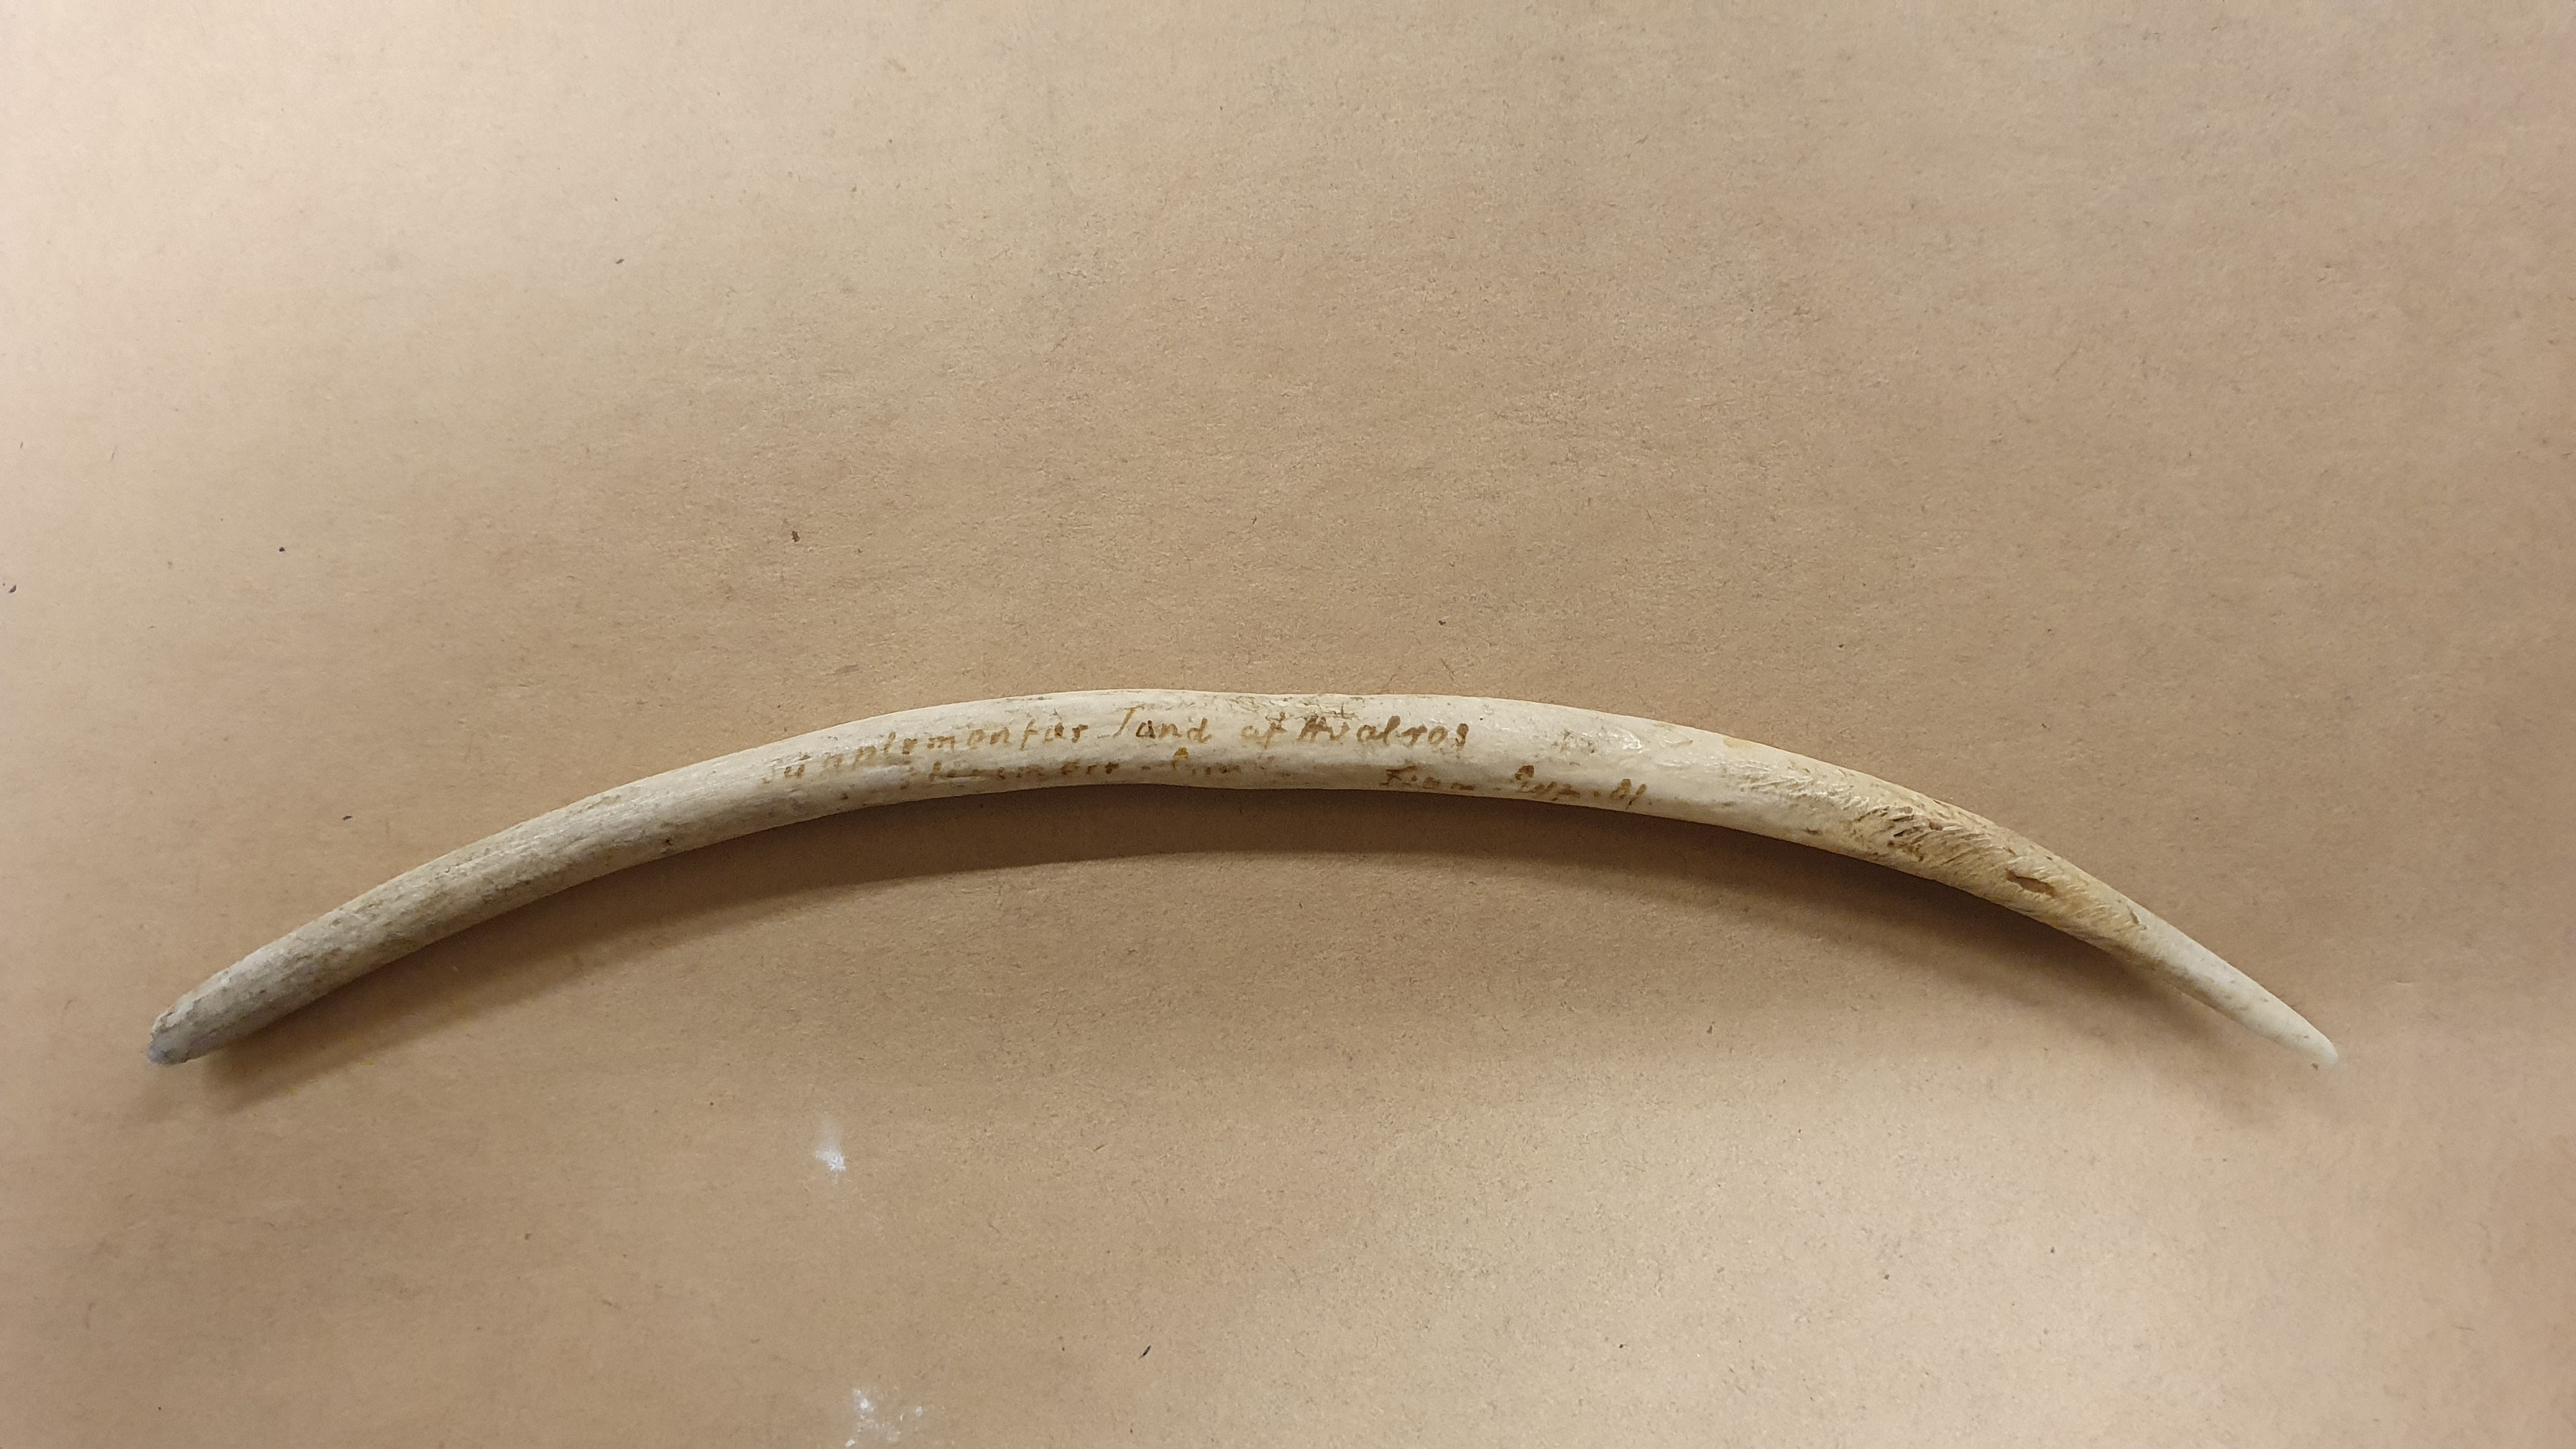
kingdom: Animalia
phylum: Chordata
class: Mammalia
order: Carnivora
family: Odobenidae
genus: Odobenus
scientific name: Odobenus rosmarus
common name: Walrus
